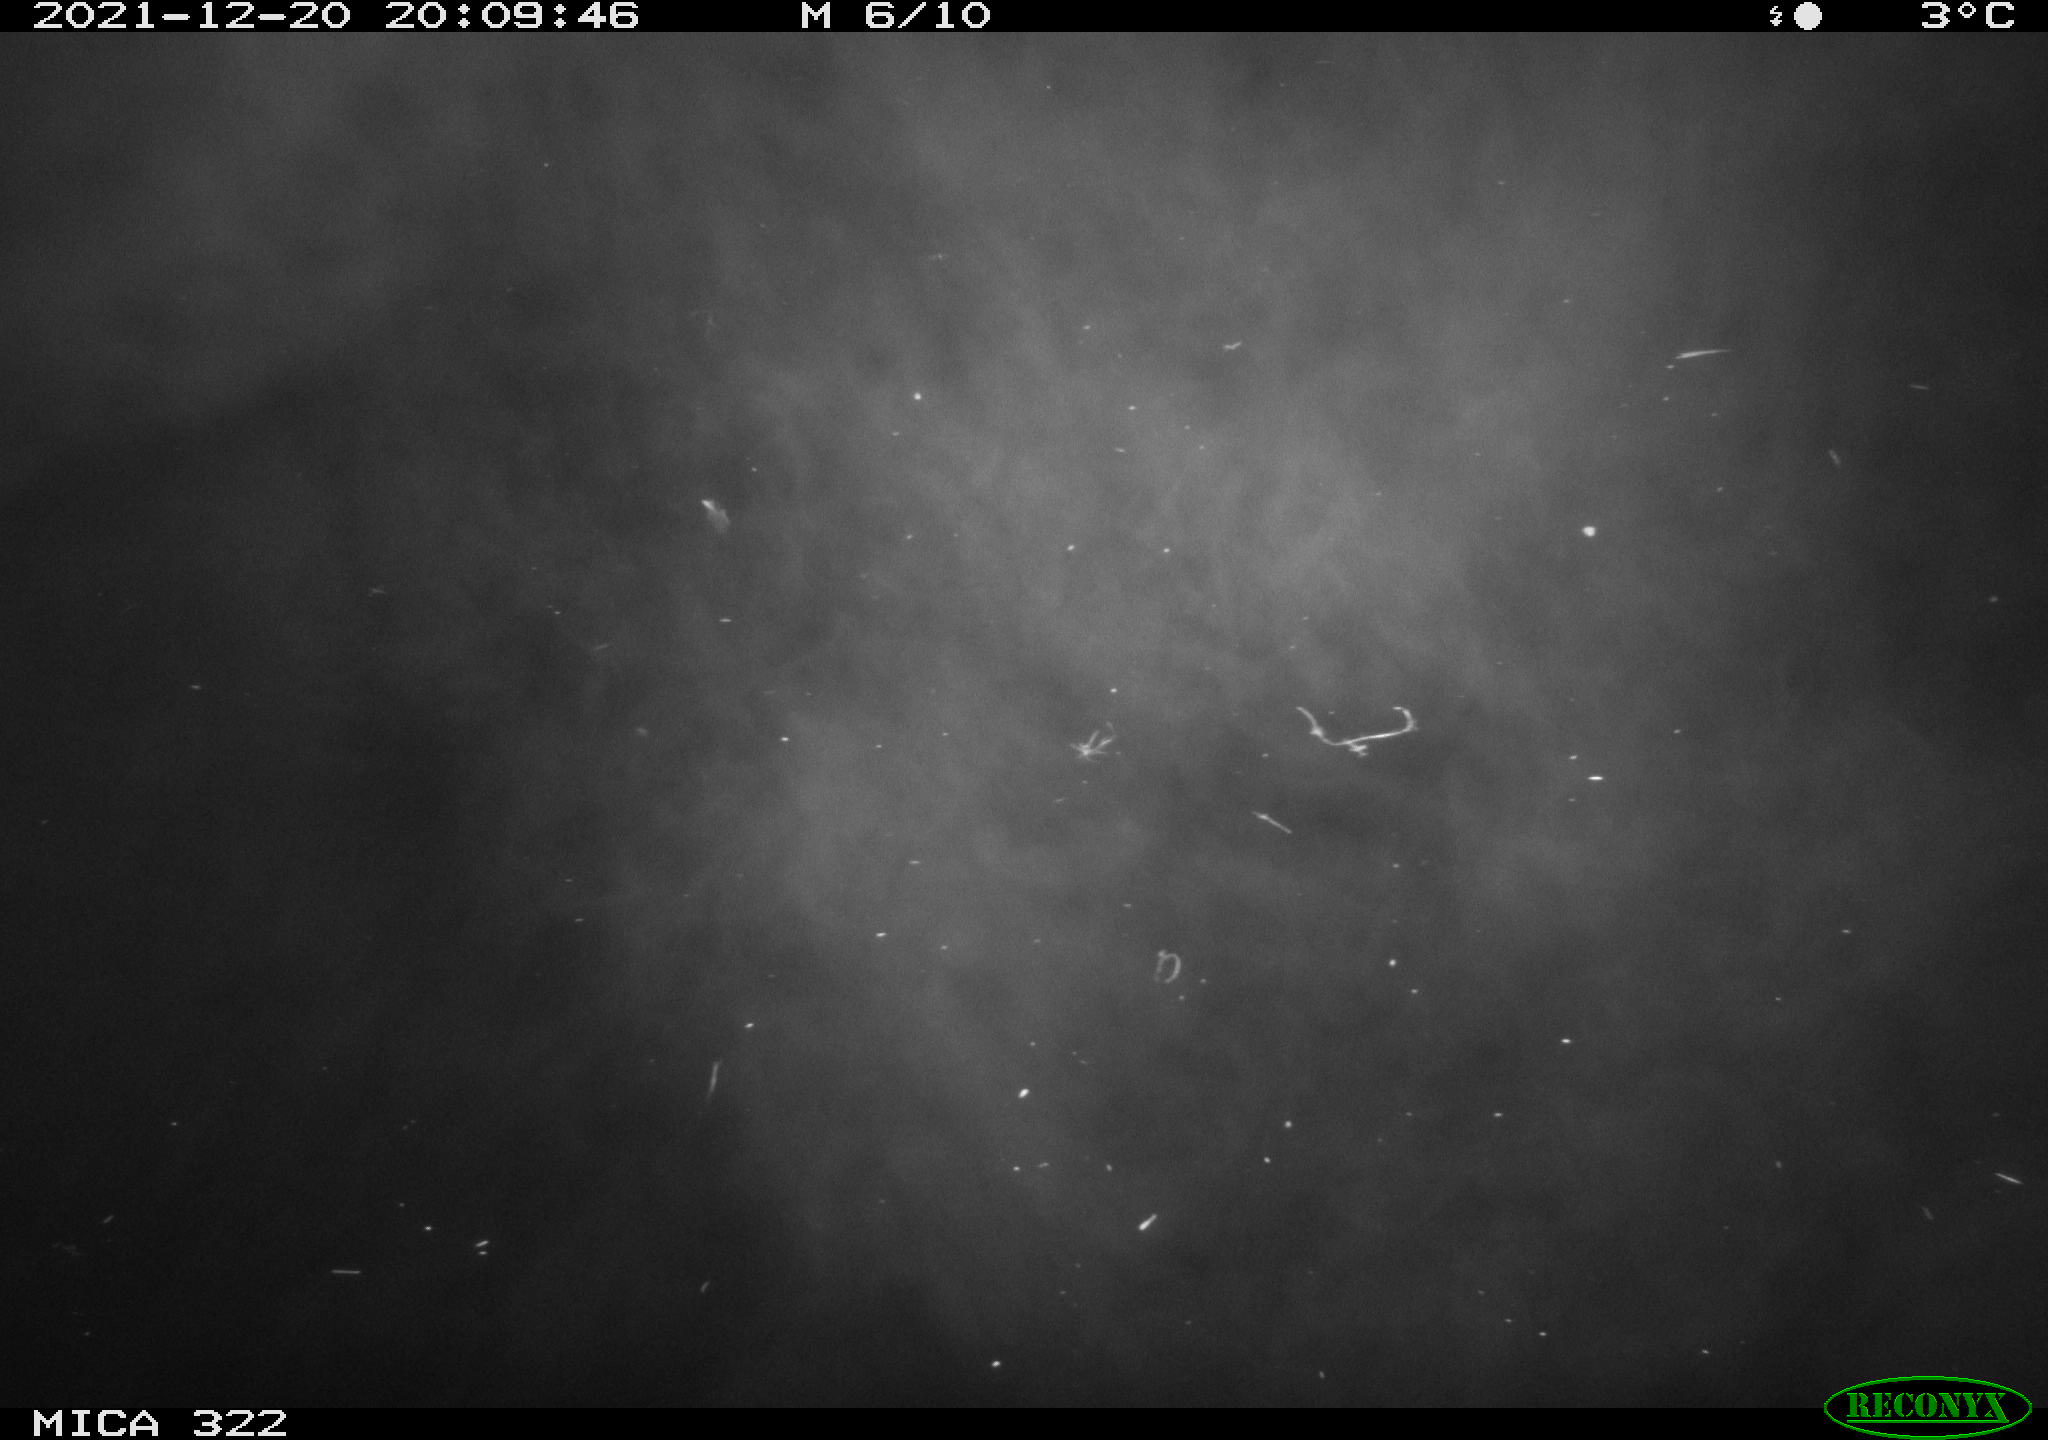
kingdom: Animalia
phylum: Chordata
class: Mammalia
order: Rodentia
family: Muridae
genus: Rattus
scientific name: Rattus norvegicus
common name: Brown rat
